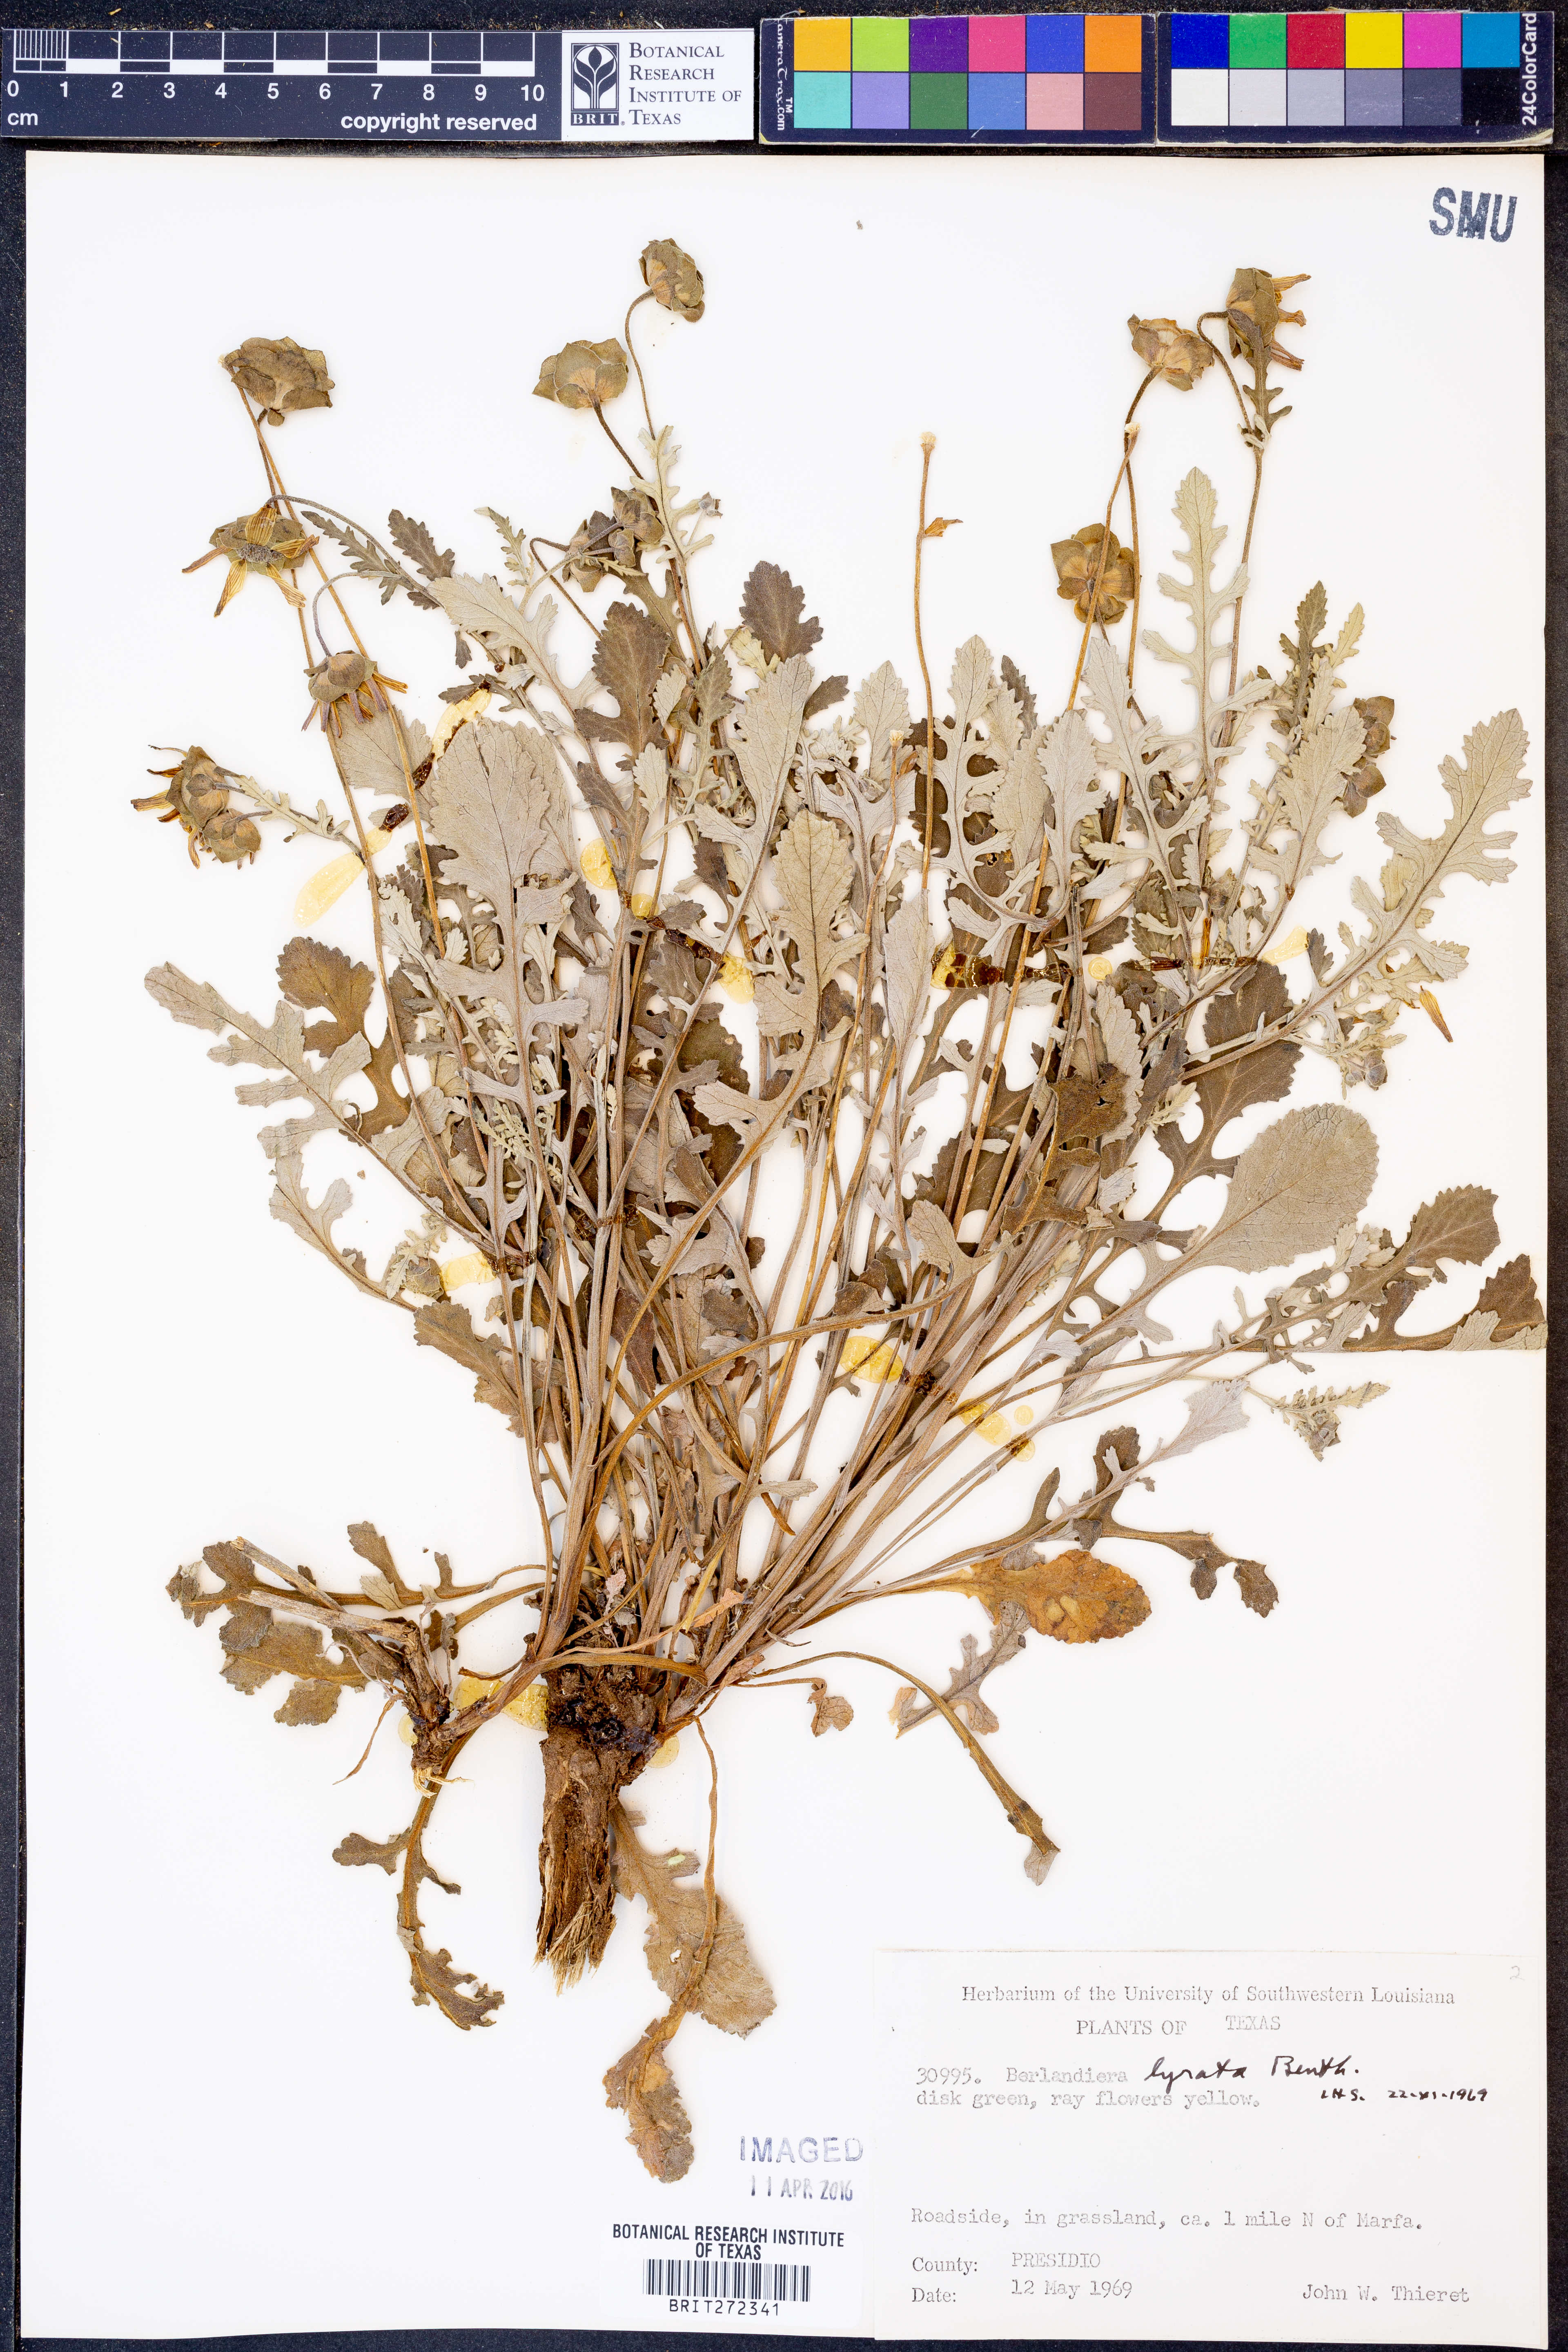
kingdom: Plantae
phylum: Tracheophyta
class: Magnoliopsida
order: Asterales
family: Asteraceae
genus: Berlandiera
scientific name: Berlandiera lyrata
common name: Chocolate-flower
